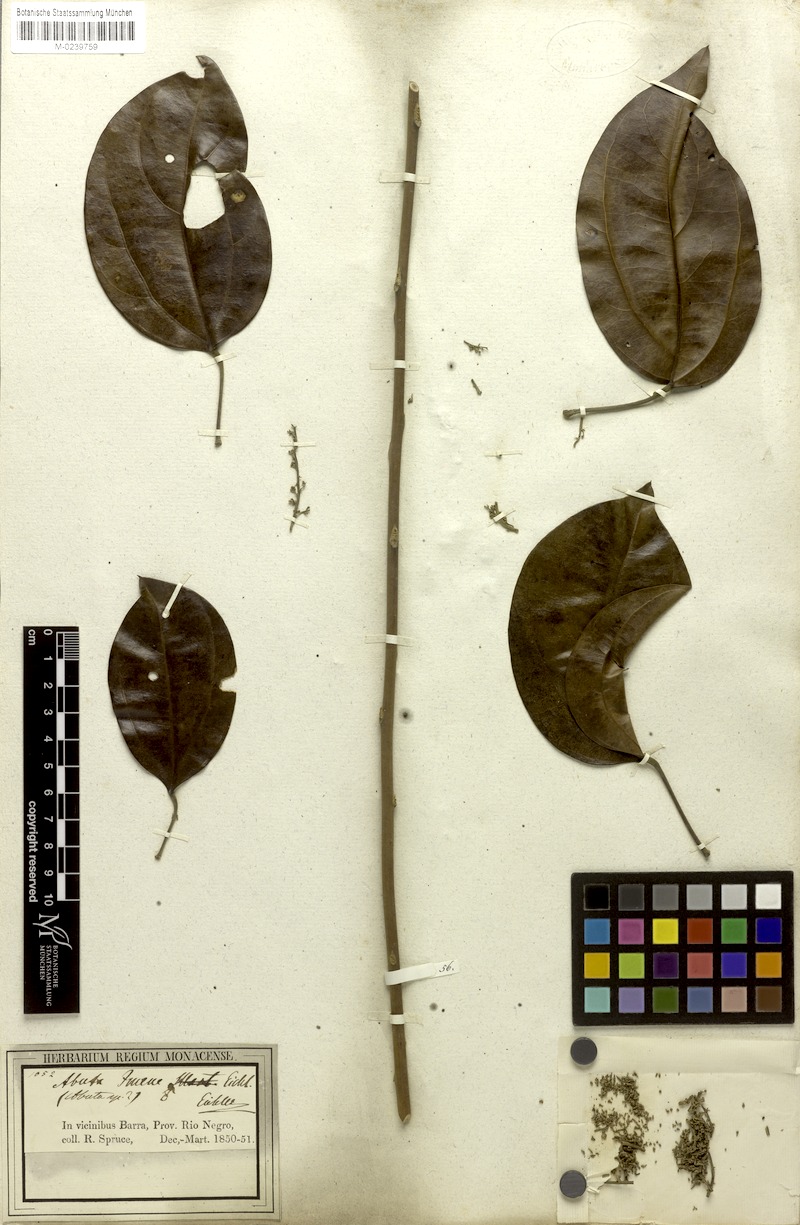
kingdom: Plantae
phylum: Tracheophyta
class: Magnoliopsida
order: Ranunculales
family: Menispermaceae
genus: Abuta
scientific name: Abuta imene
